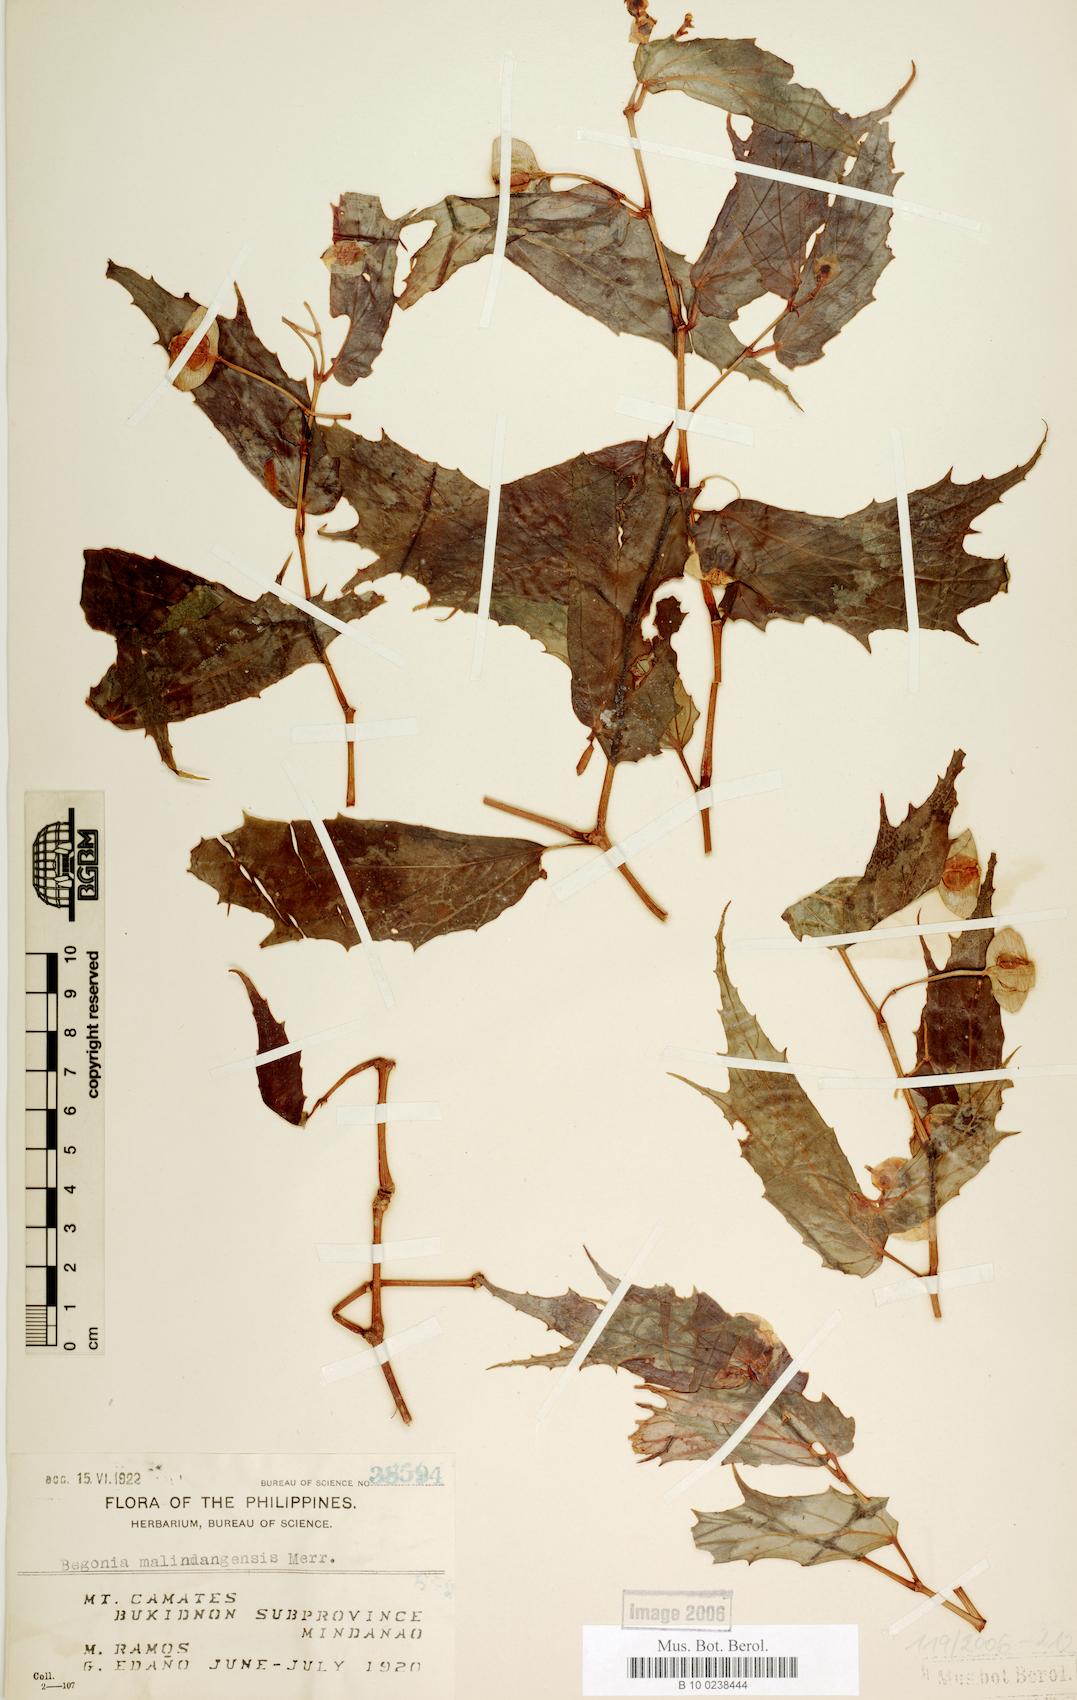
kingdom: Plantae
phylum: Tracheophyta
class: Magnoliopsida
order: Cucurbitales
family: Begoniaceae
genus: Begonia
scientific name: Begonia malindangensis
